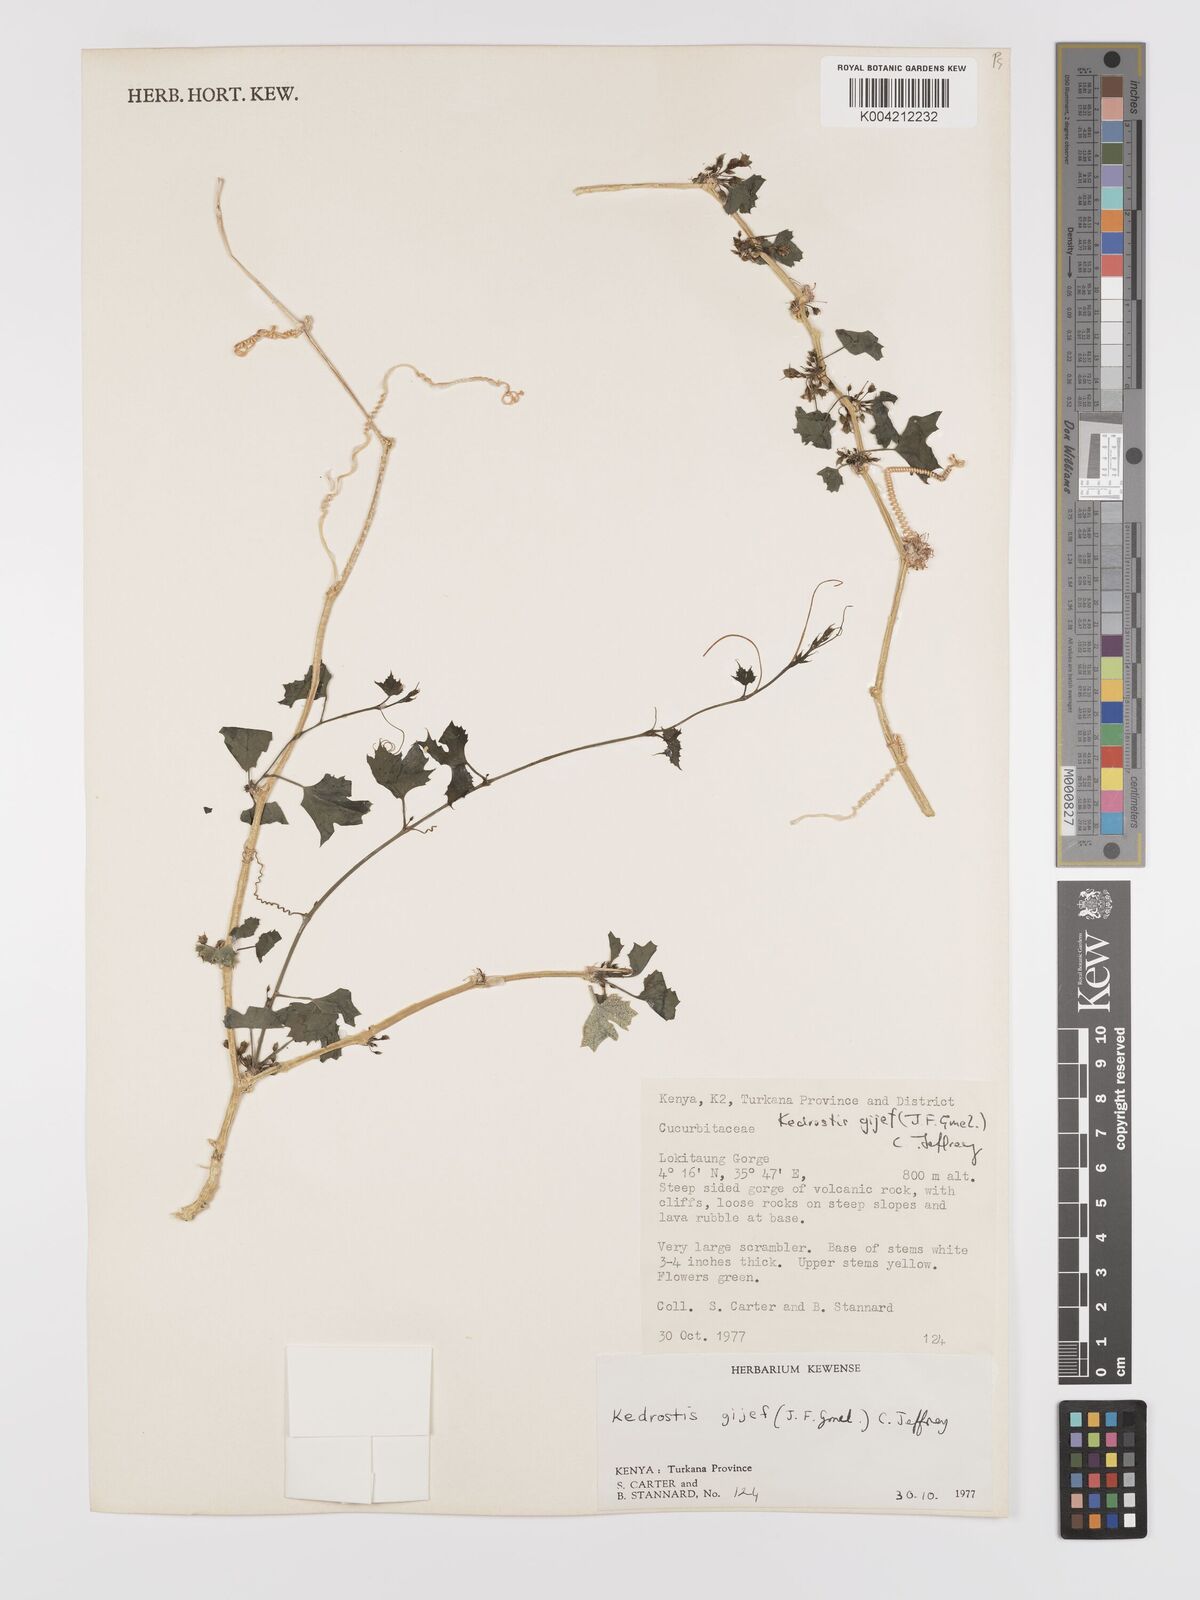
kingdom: Plantae
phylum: Tracheophyta
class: Magnoliopsida
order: Cucurbitales
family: Cucurbitaceae
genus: Kedrostis
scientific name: Kedrostis gijef
